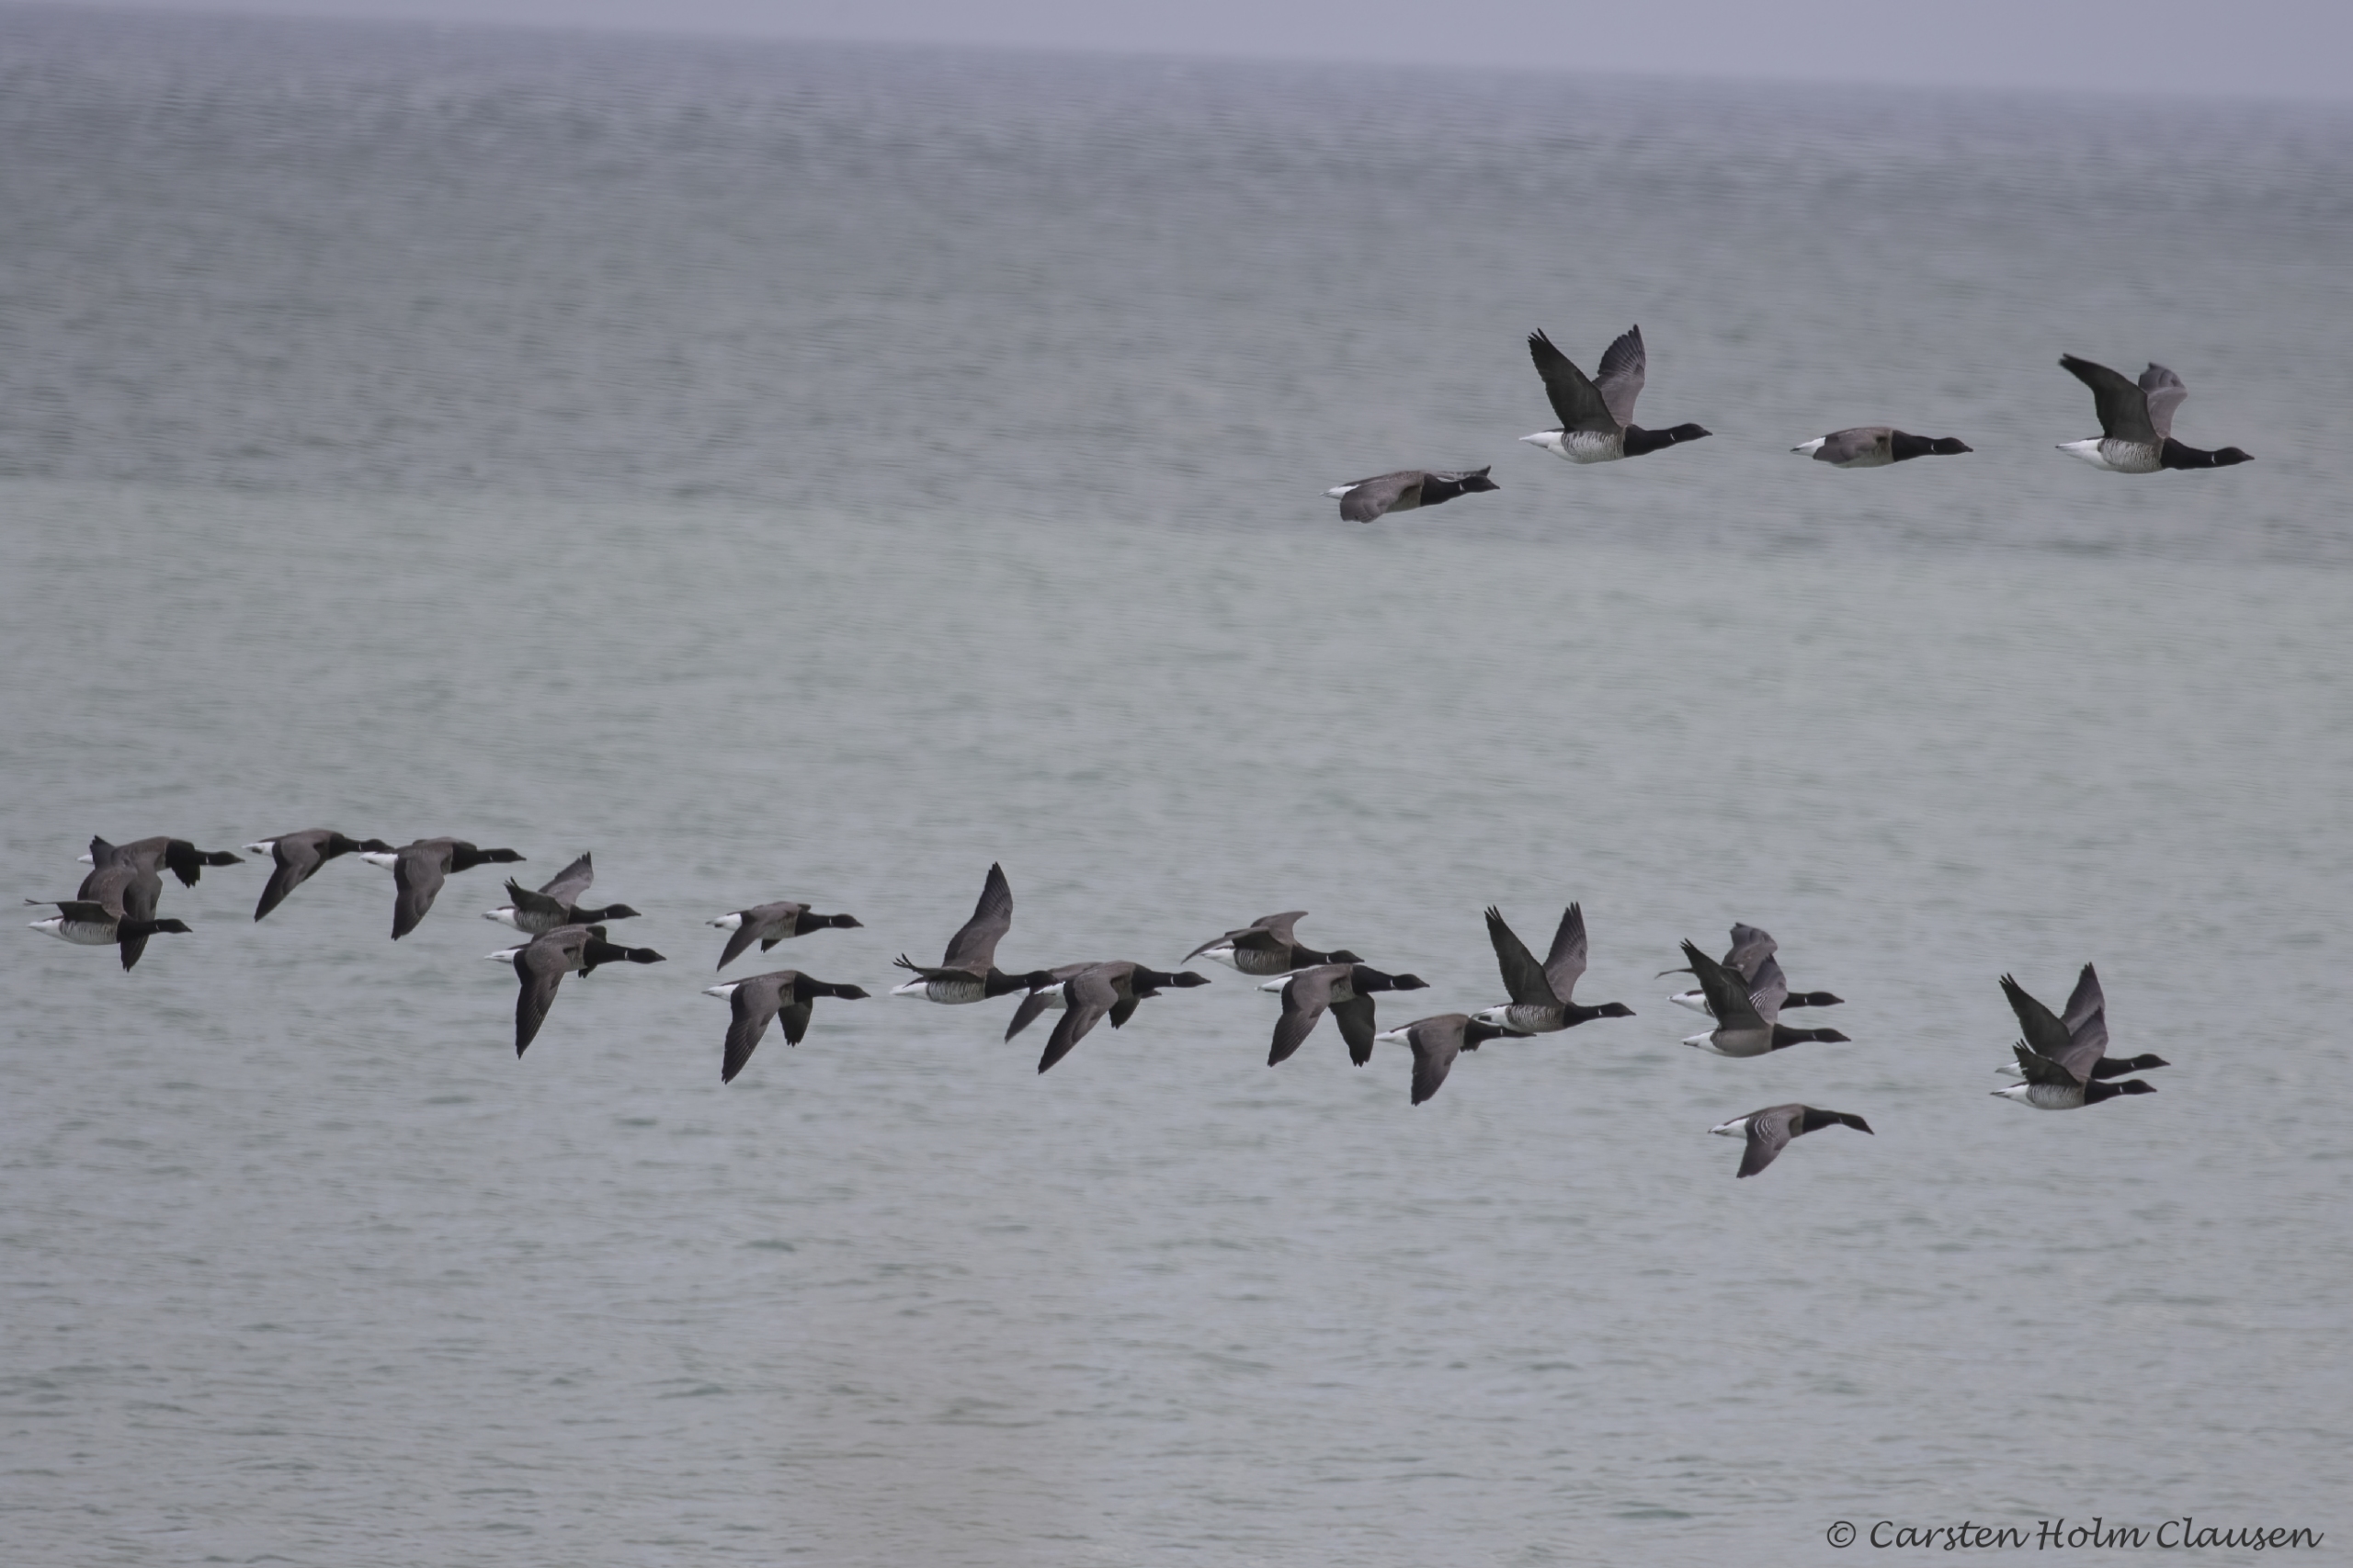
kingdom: Animalia
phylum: Chordata
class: Aves
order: Anseriformes
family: Anatidae
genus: Branta
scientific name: Branta bernicla
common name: Lysbuget knortegås
